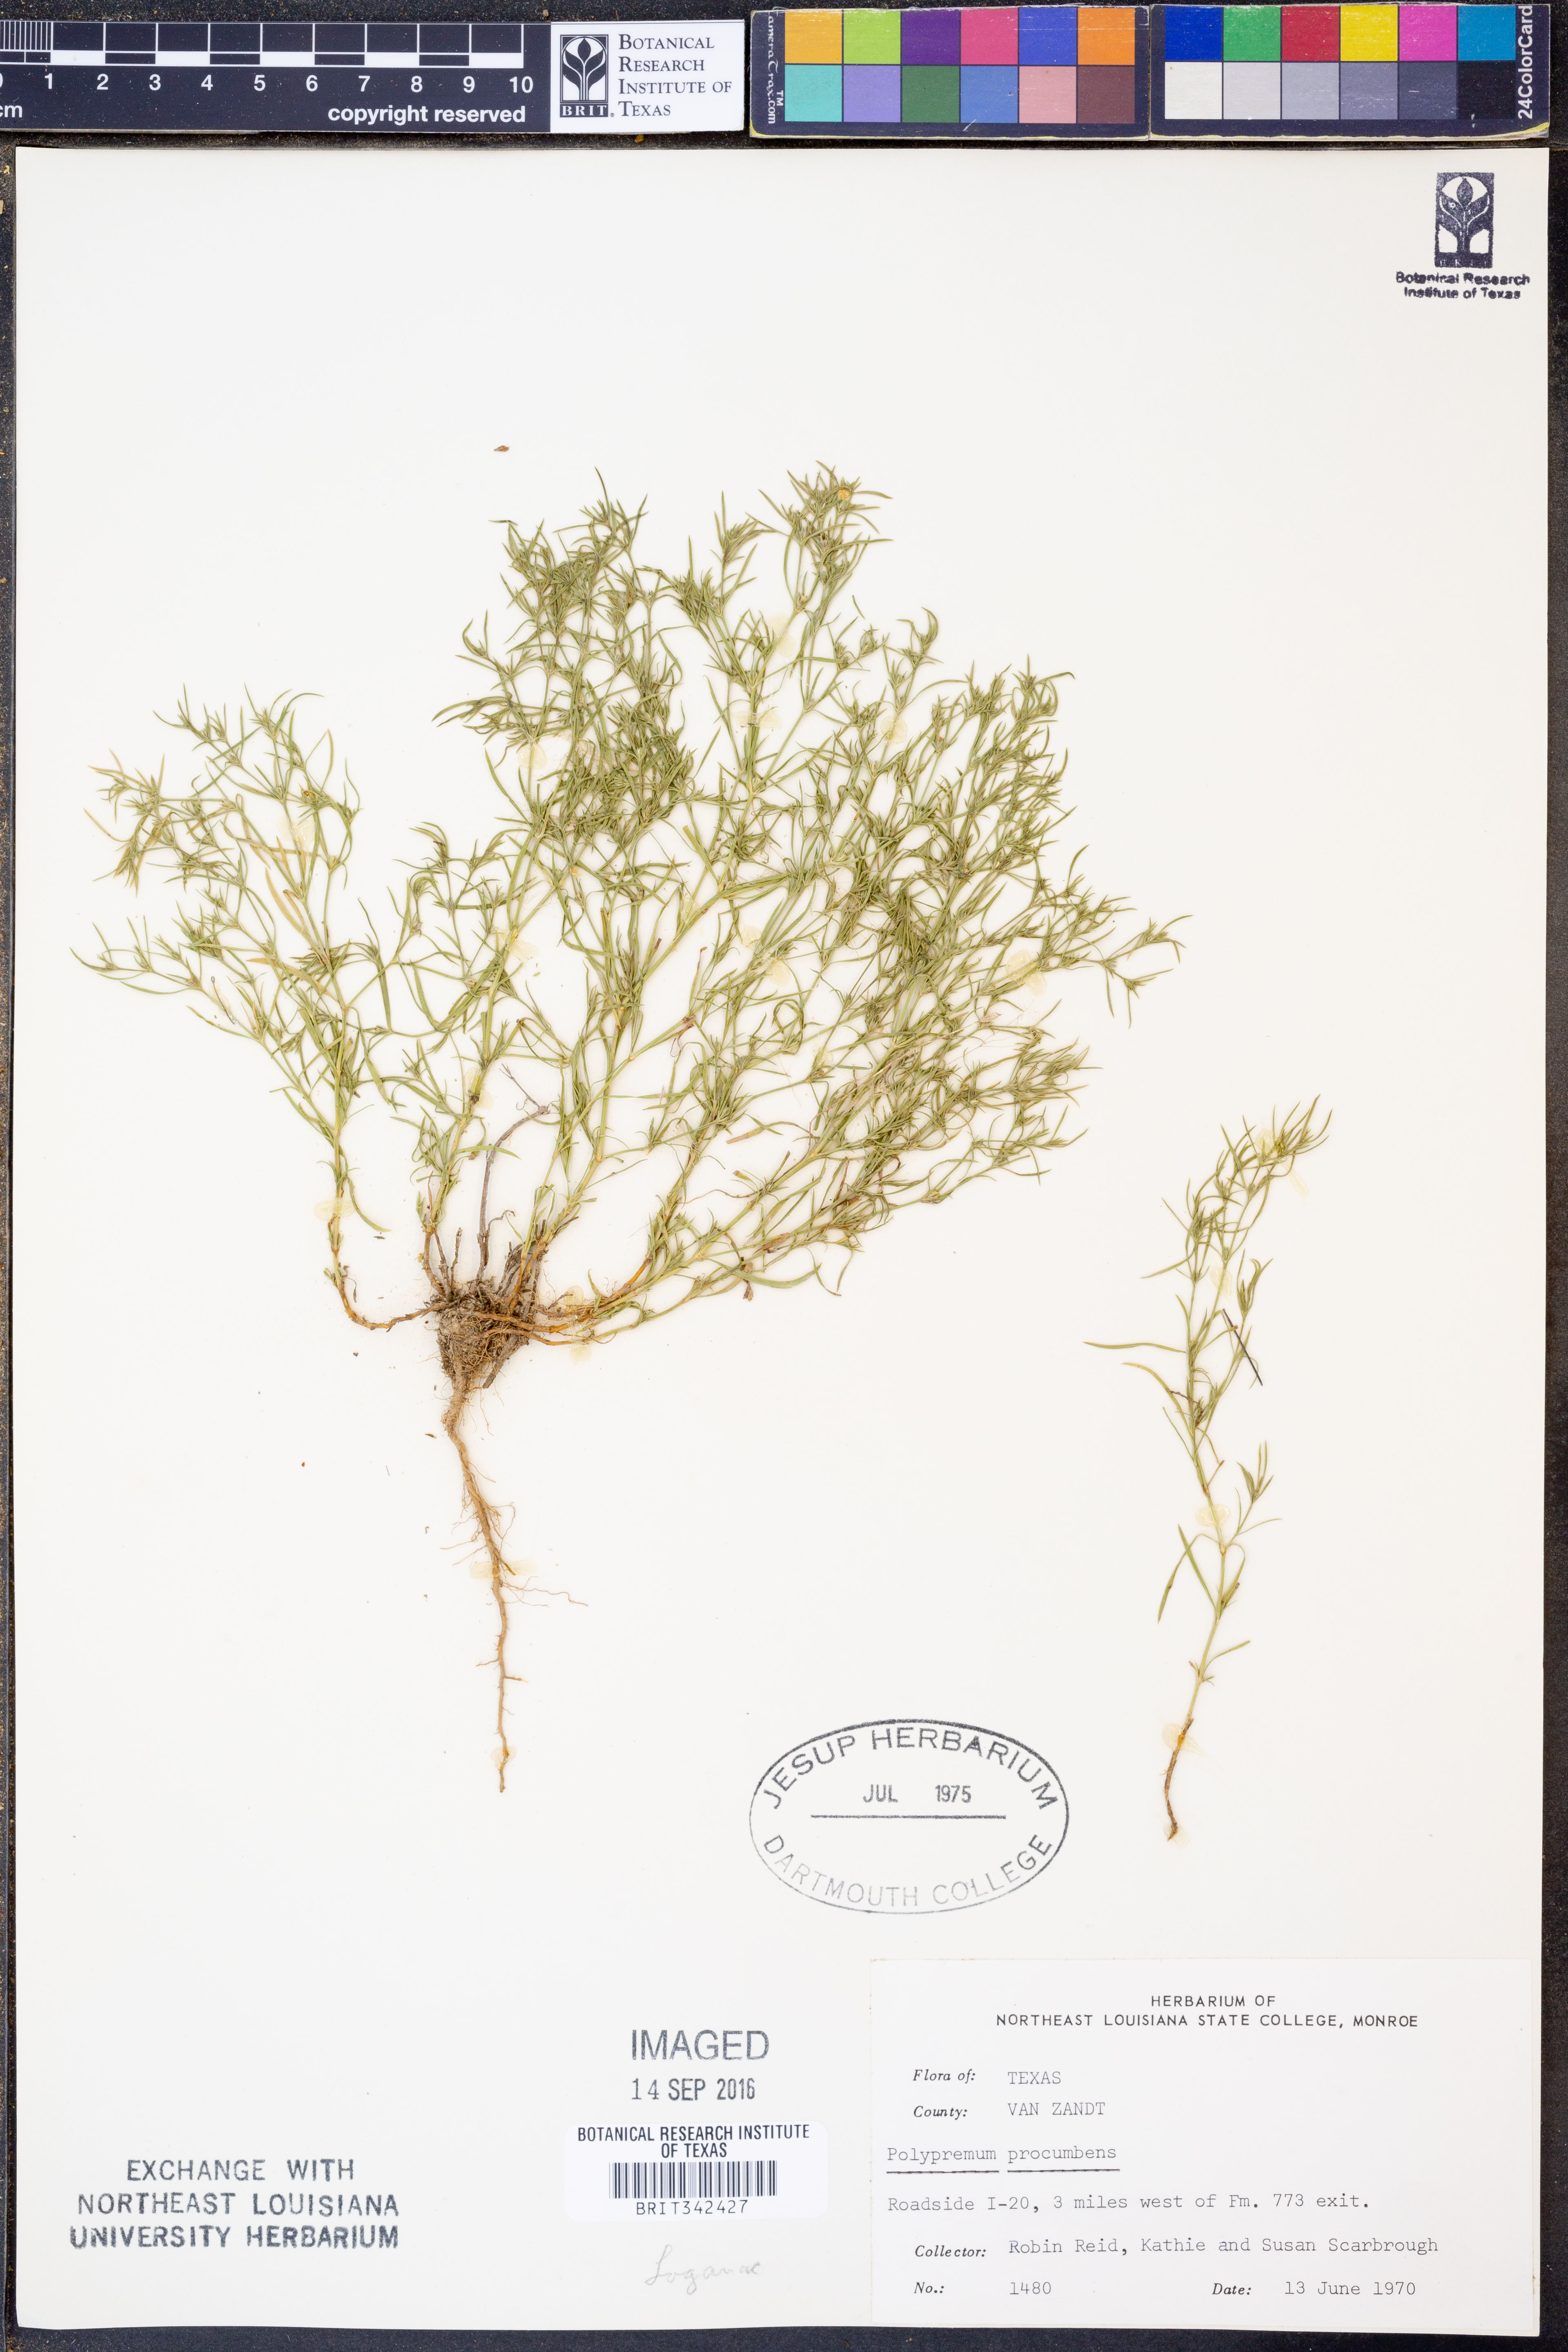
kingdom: Plantae
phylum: Tracheophyta
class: Magnoliopsida
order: Lamiales
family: Tetrachondraceae
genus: Polypremum
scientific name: Polypremum procumbens
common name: Juniper-leaf
